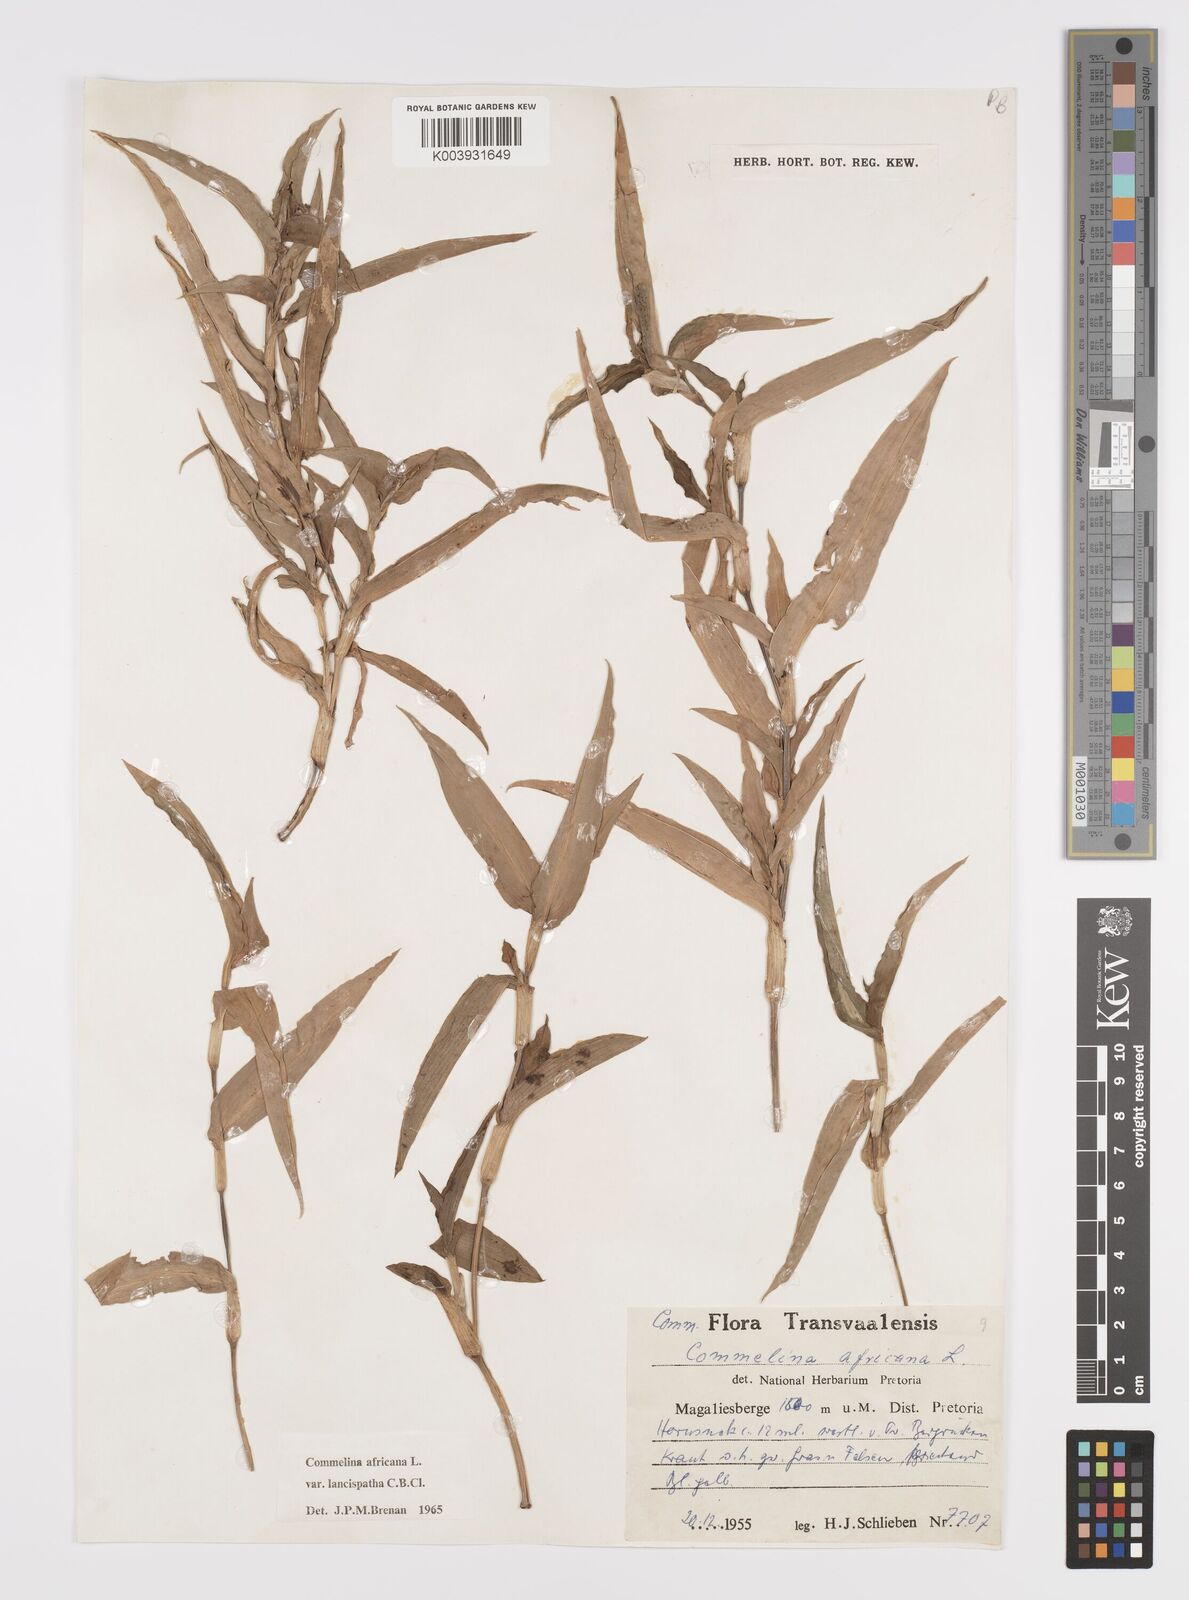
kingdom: Plantae
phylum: Tracheophyta
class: Liliopsida
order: Commelinales
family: Commelinaceae
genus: Commelina
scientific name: Commelina africana
